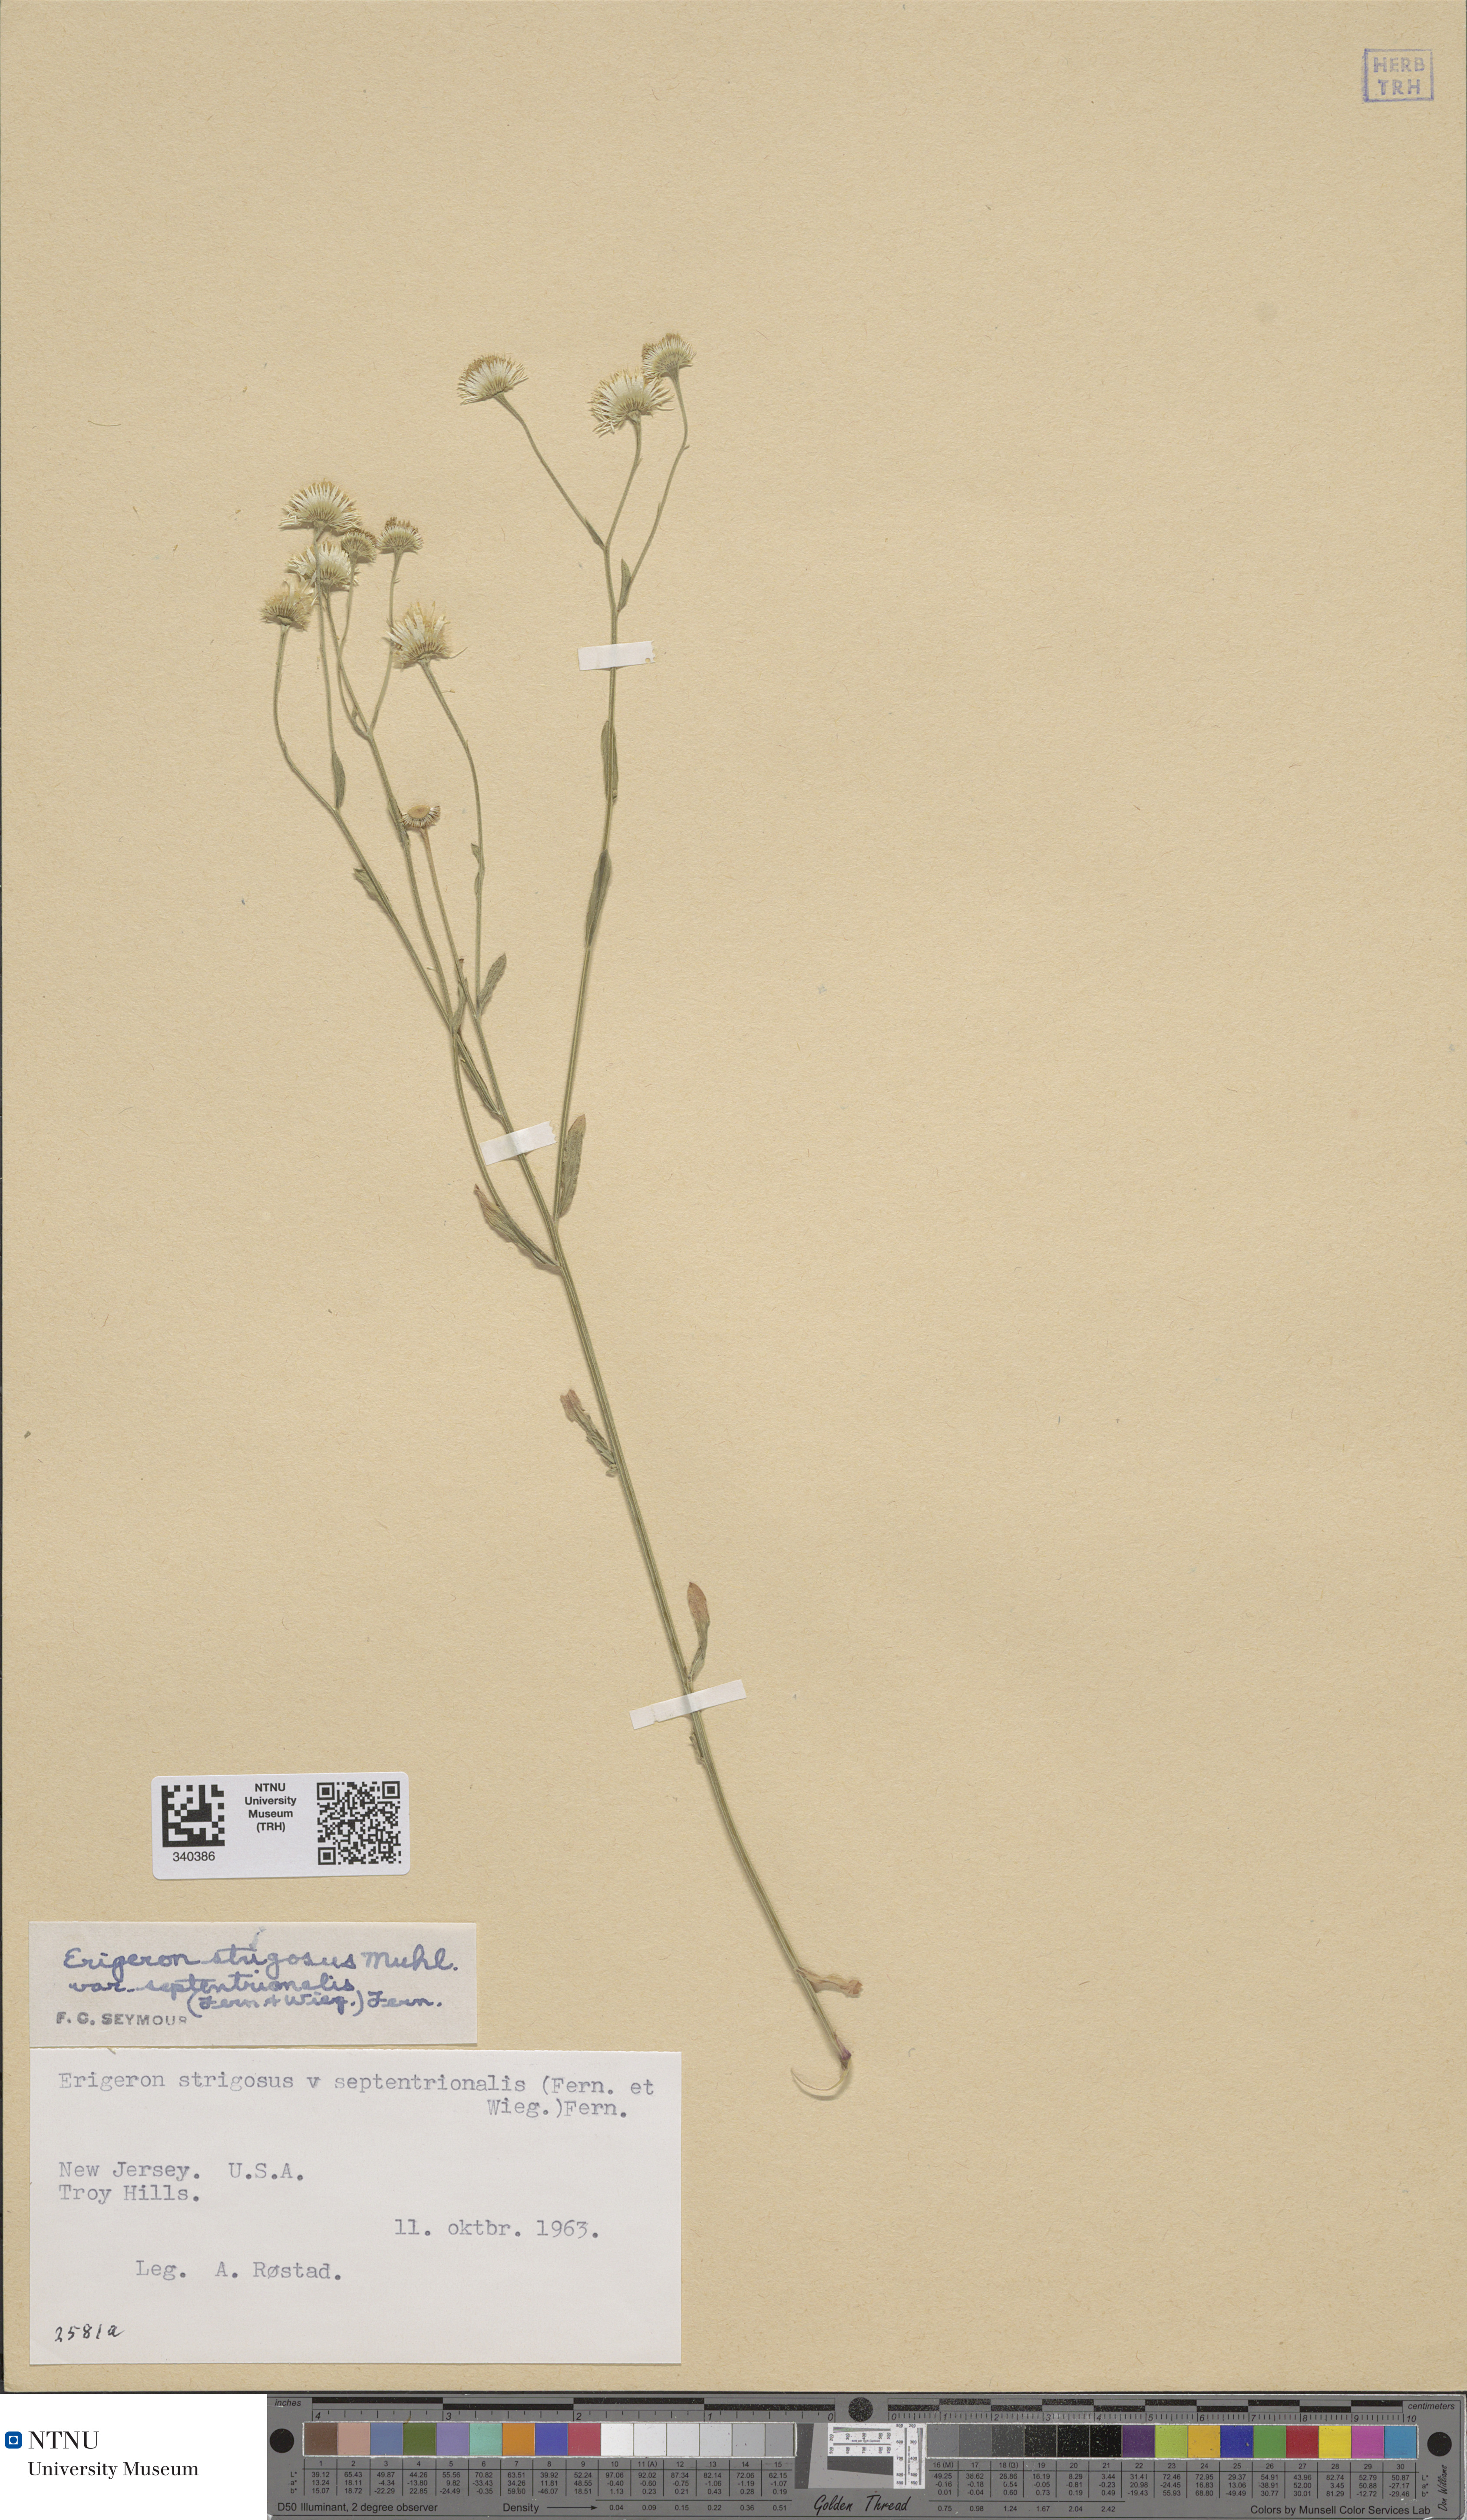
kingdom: Plantae
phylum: Tracheophyta
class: Magnoliopsida
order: Asterales
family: Asteraceae
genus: Erigeron
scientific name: Erigeron strigosus
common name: Common eastern fleabane
